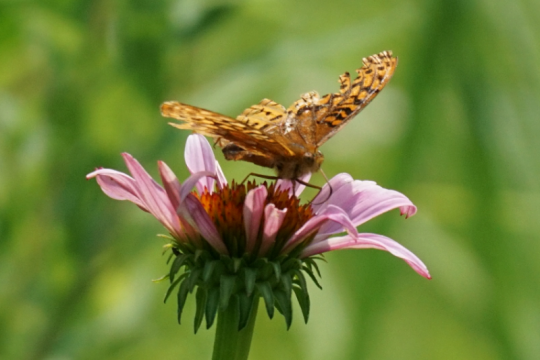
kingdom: Animalia
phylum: Arthropoda
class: Insecta
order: Lepidoptera
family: Nymphalidae
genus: Speyeria
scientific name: Speyeria cybele
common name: Great Spangled Fritillary
